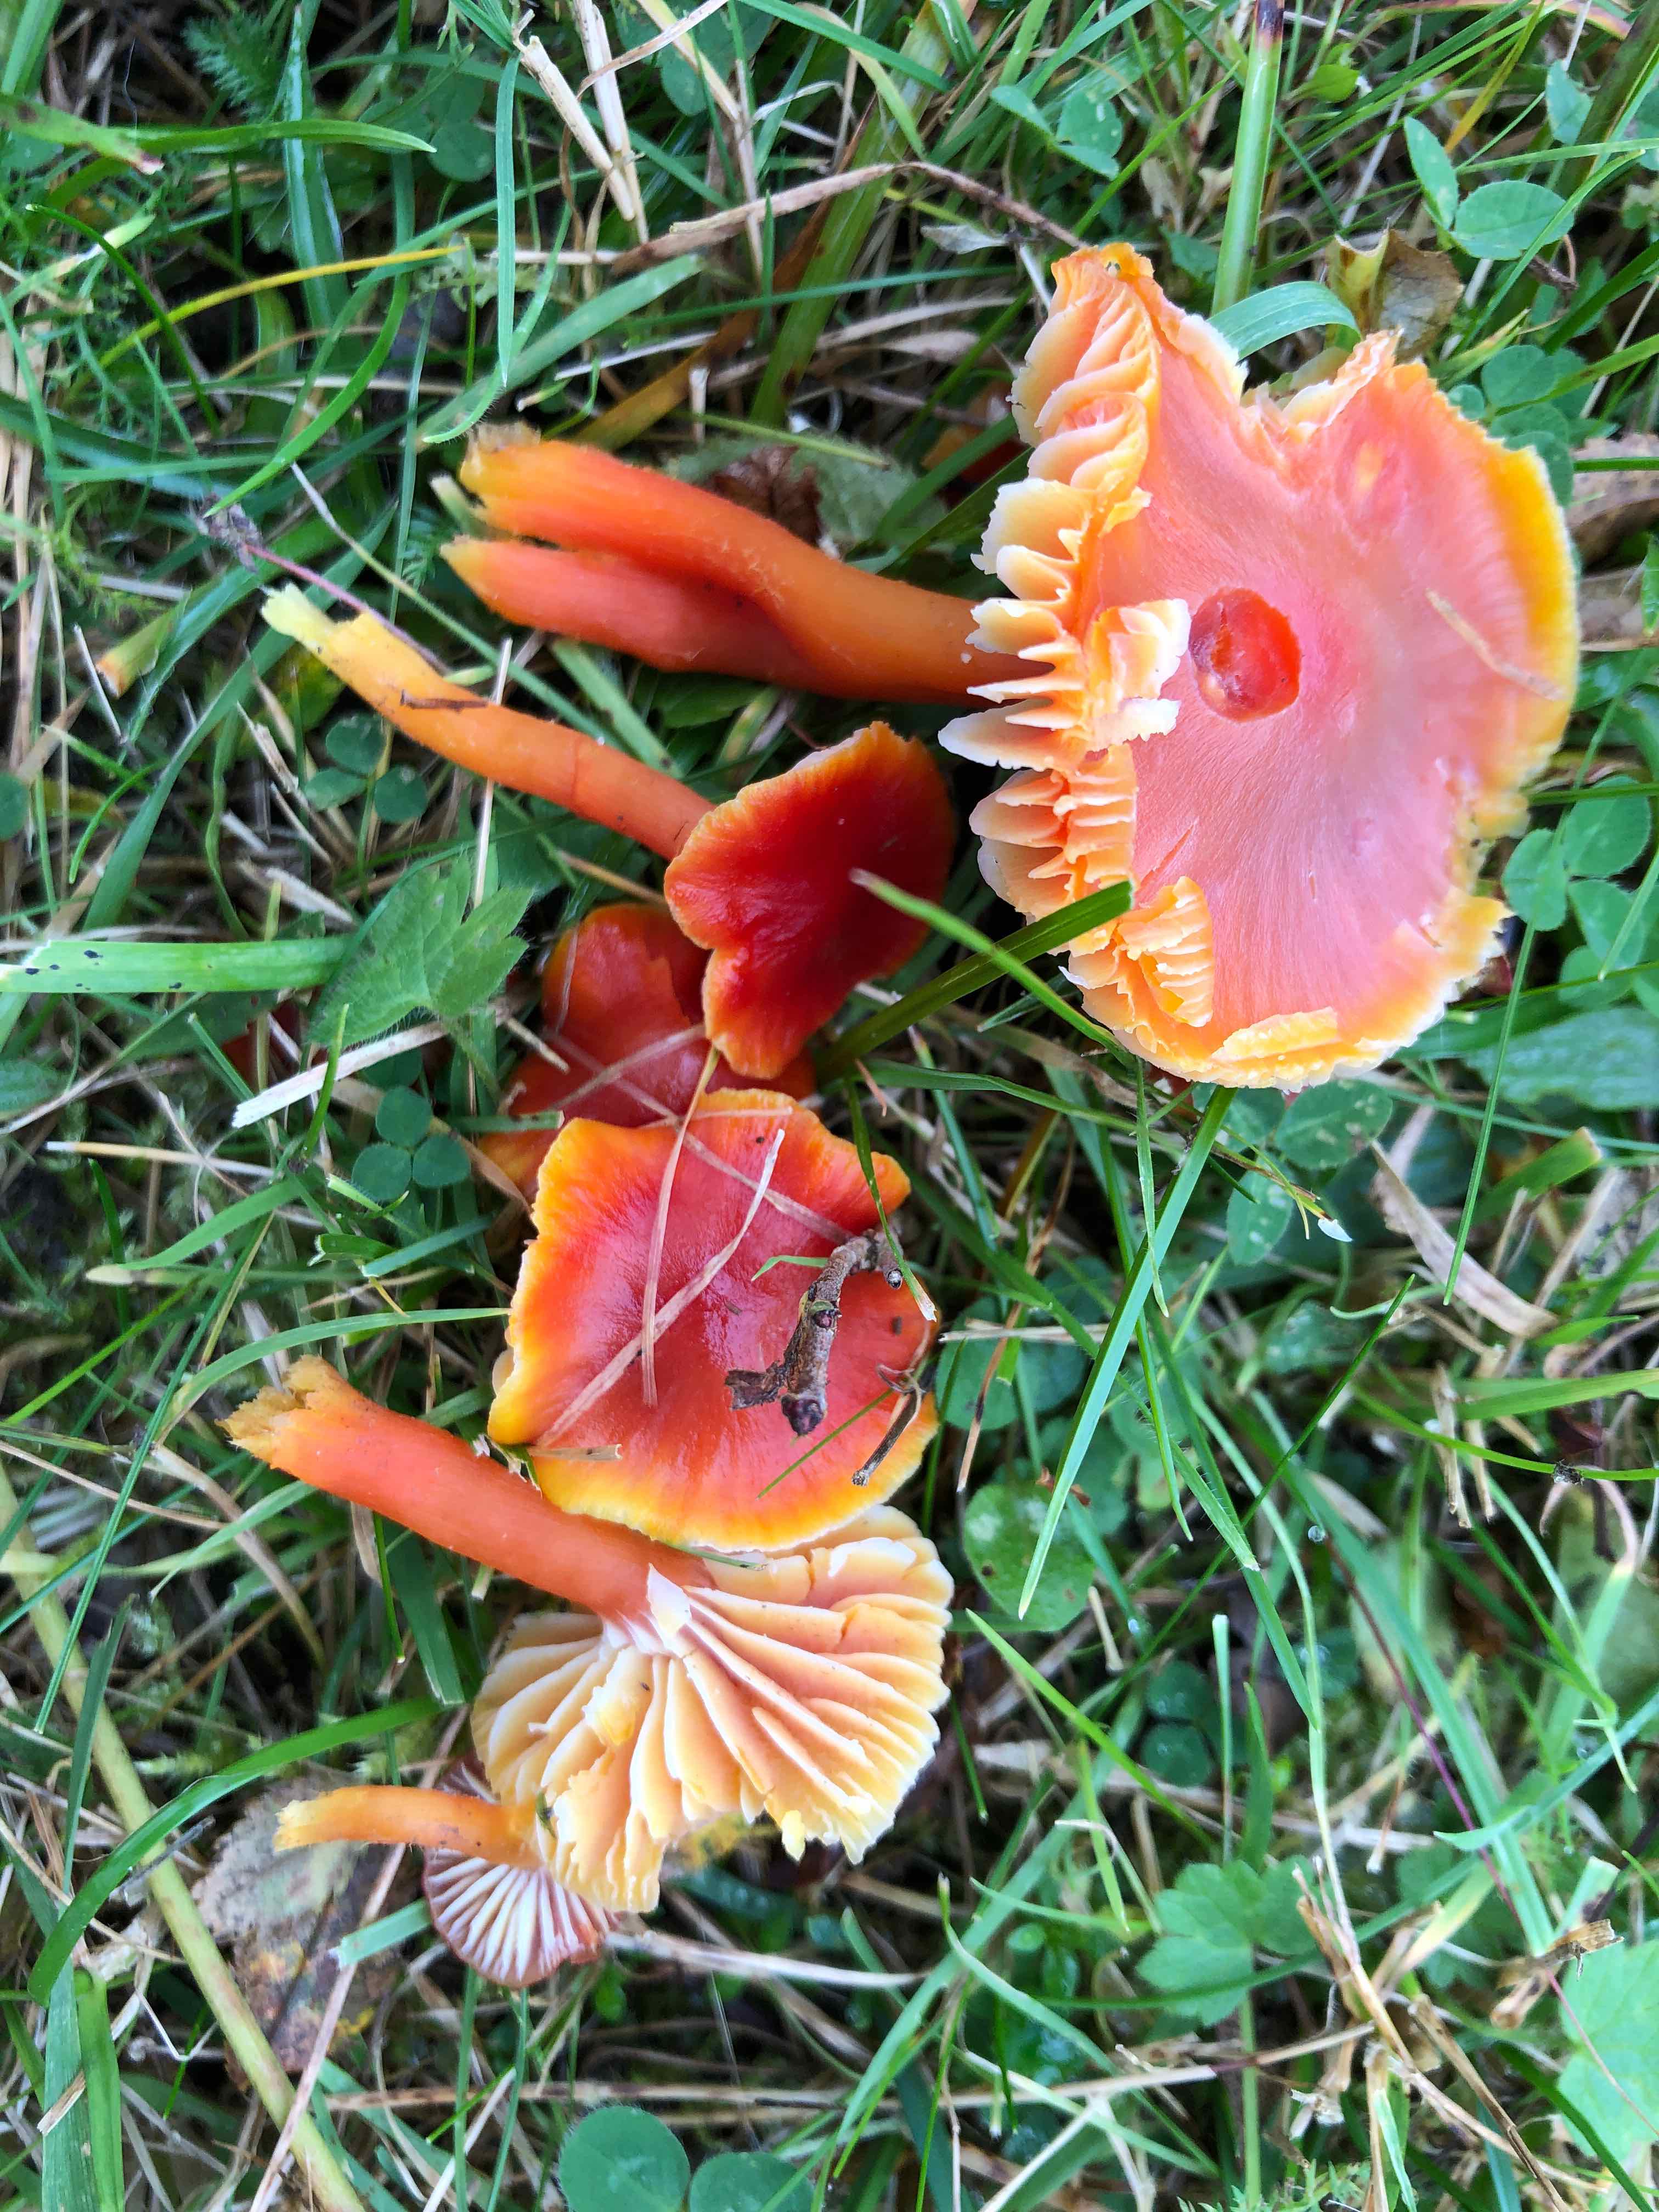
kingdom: Fungi
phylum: Basidiomycota
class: Agaricomycetes
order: Agaricales
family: Hygrophoraceae
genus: Hygrocybe
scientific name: Hygrocybe coccinea
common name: cinnober-vokshat
